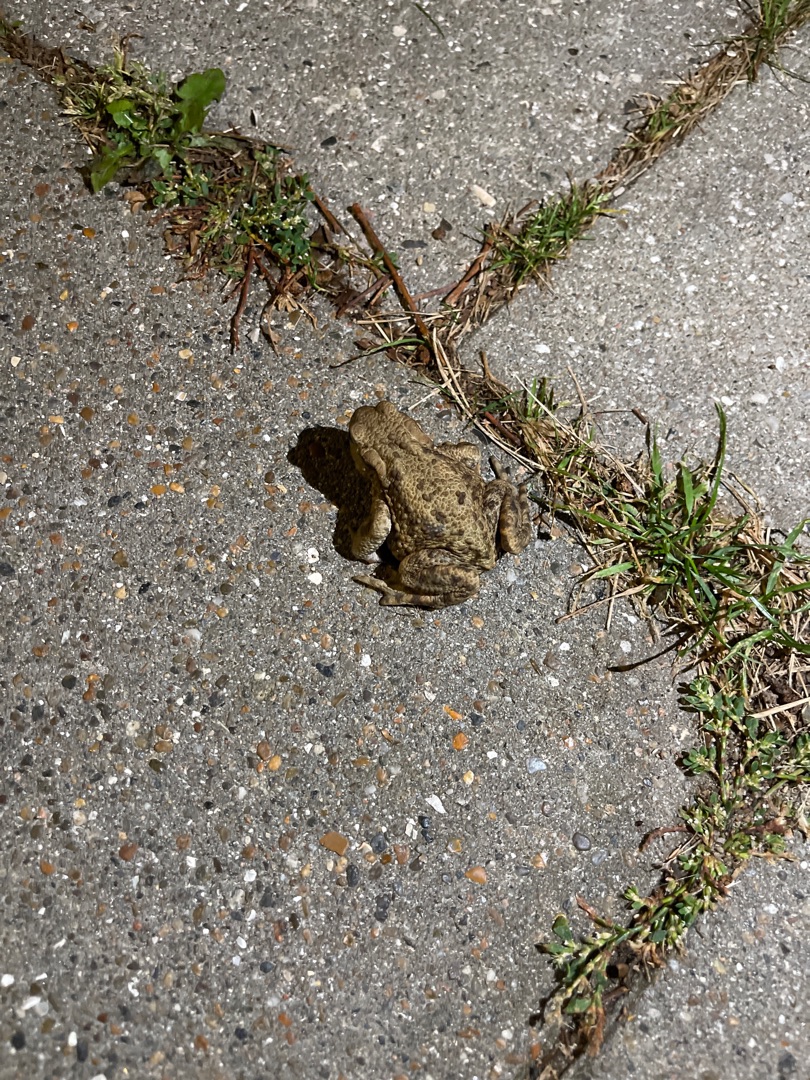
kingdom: Animalia
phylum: Chordata
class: Amphibia
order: Anura
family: Bufonidae
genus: Bufo
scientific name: Bufo bufo
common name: Skrubtudse
